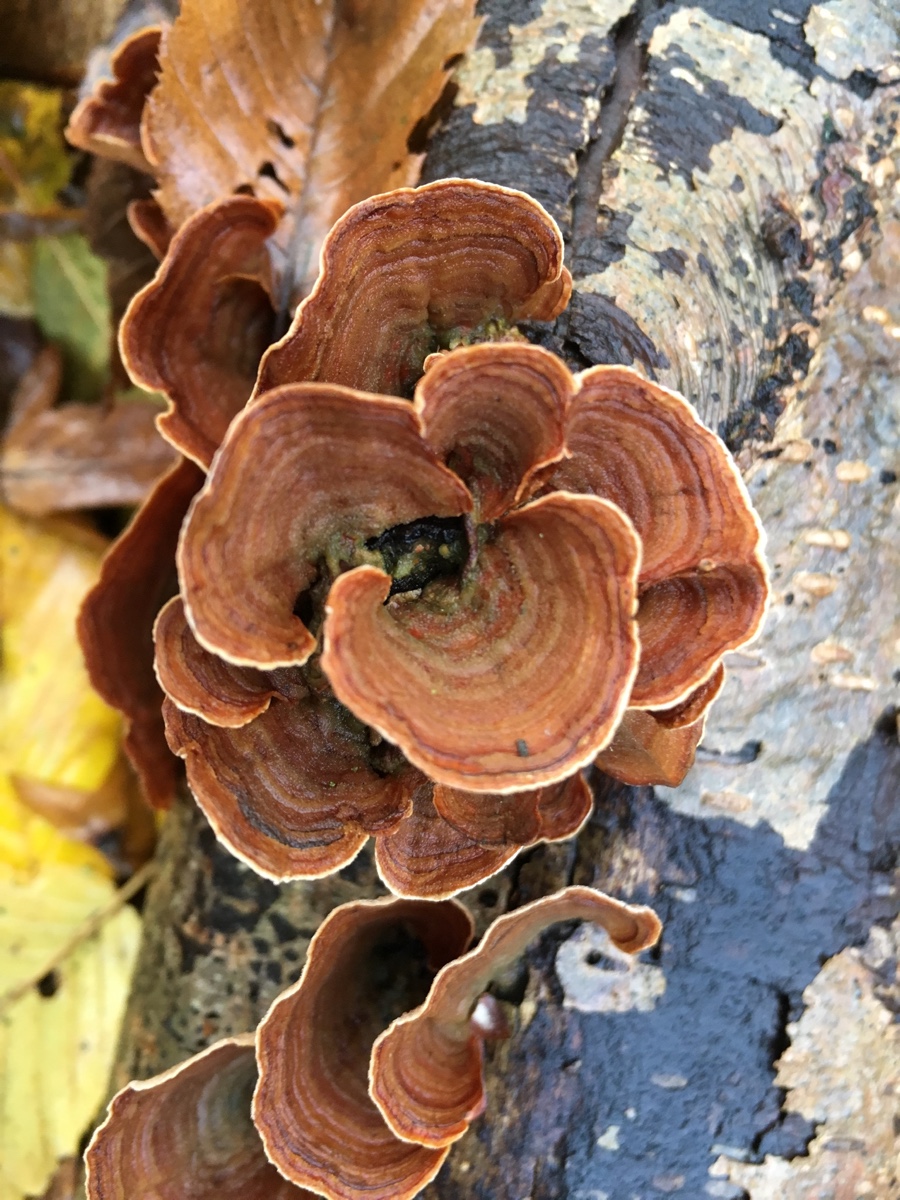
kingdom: Fungi
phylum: Basidiomycota
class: Agaricomycetes
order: Russulales
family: Stereaceae
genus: Stereum
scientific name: Stereum subtomentosum
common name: smuk lædersvamp
